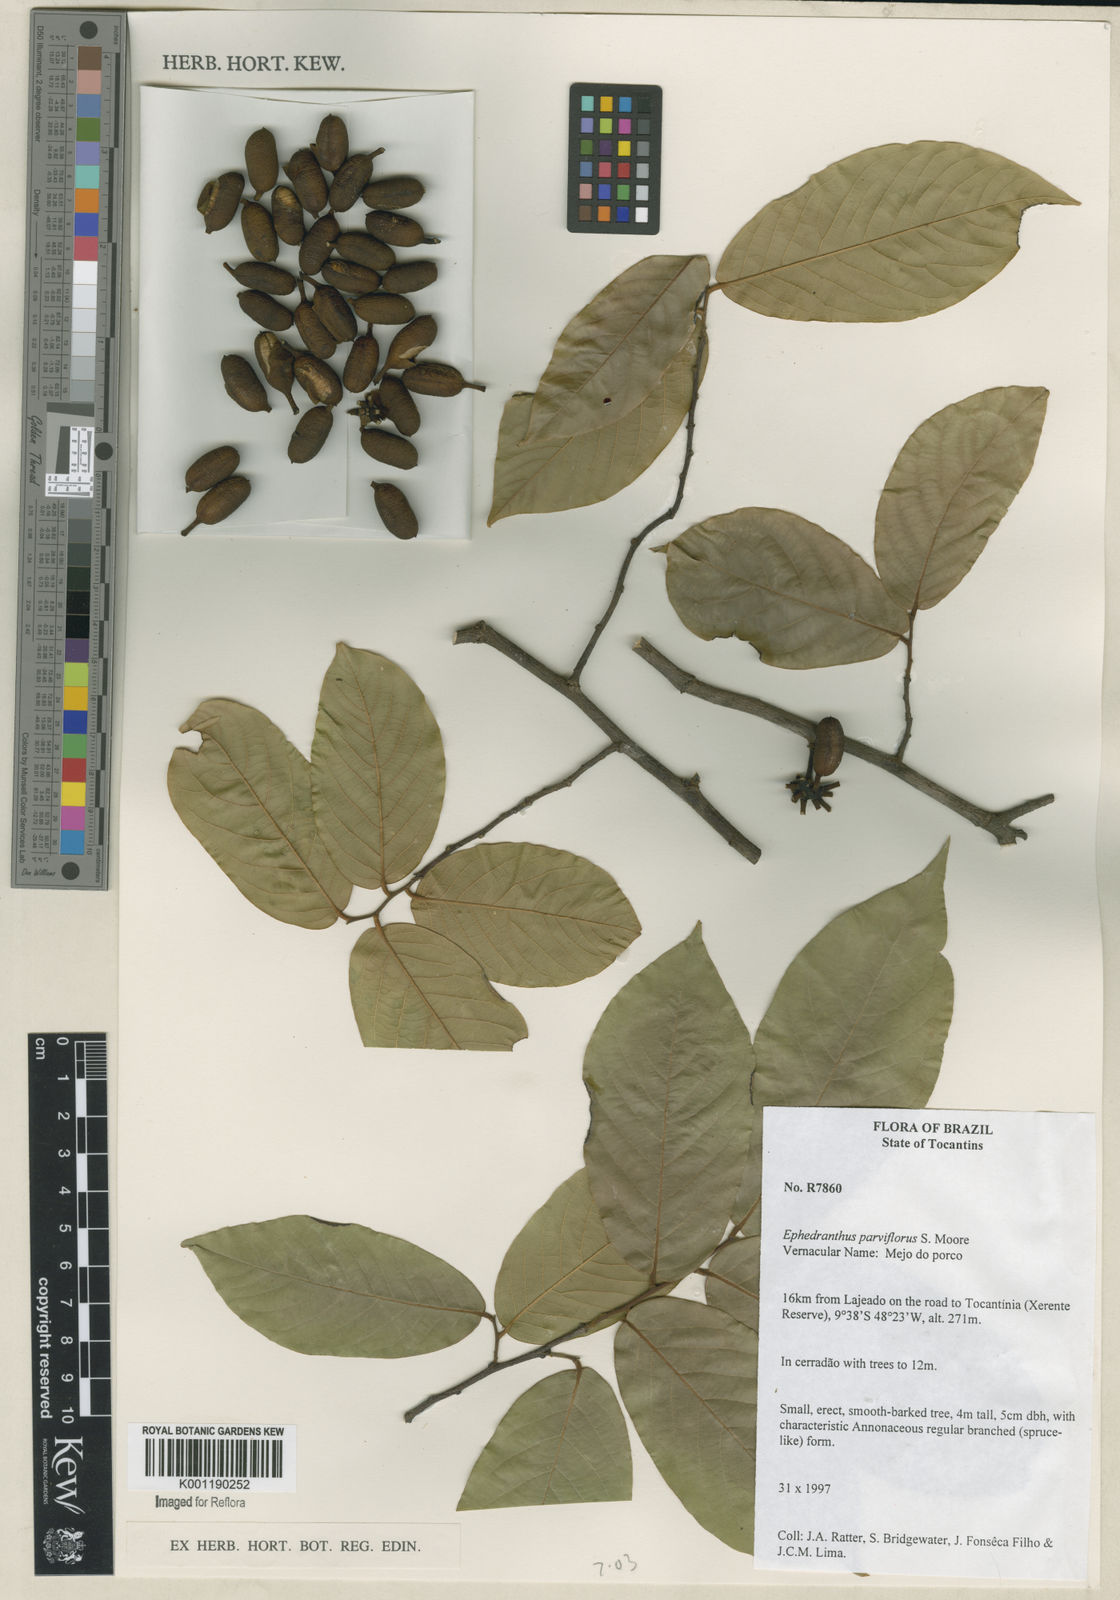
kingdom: Plantae
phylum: Tracheophyta
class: Magnoliopsida
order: Magnoliales
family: Annonaceae
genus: Ephedranthus
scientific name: Ephedranthus parviflorus
